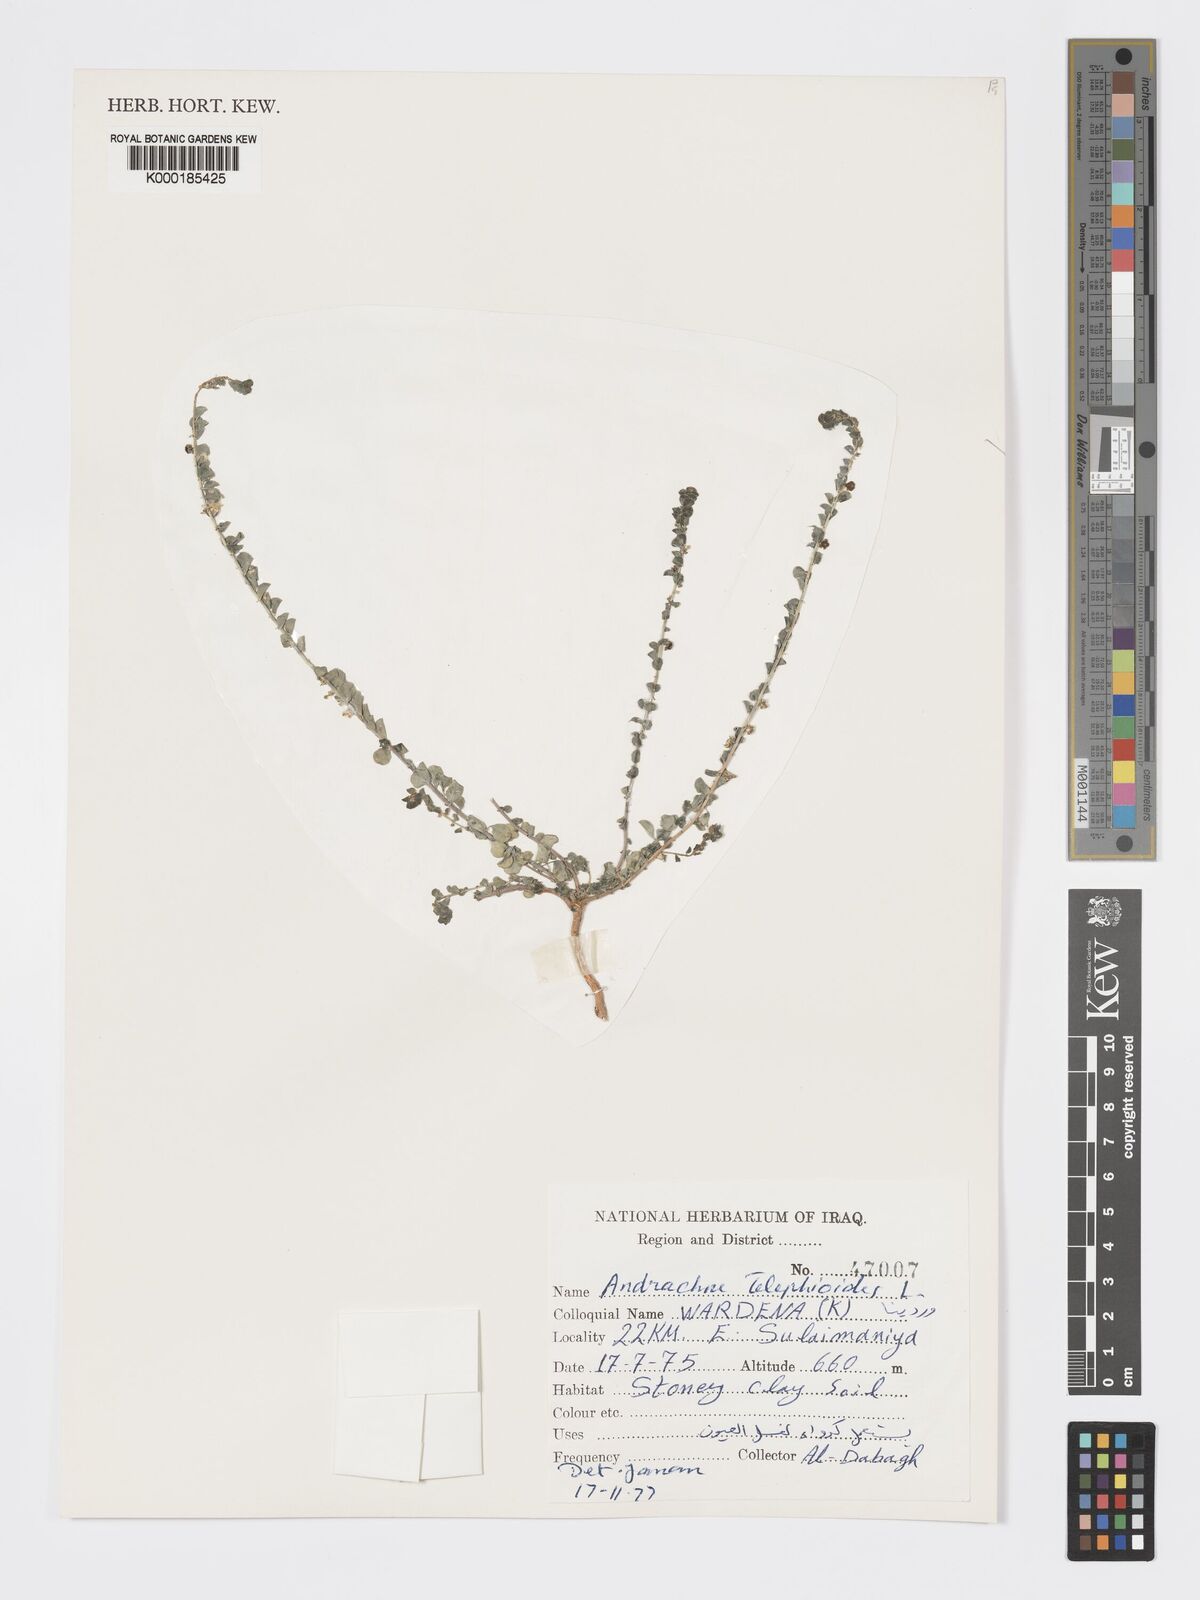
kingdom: Plantae
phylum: Tracheophyta
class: Magnoliopsida
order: Malpighiales
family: Phyllanthaceae
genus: Andrachne
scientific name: Andrachne telephioides
